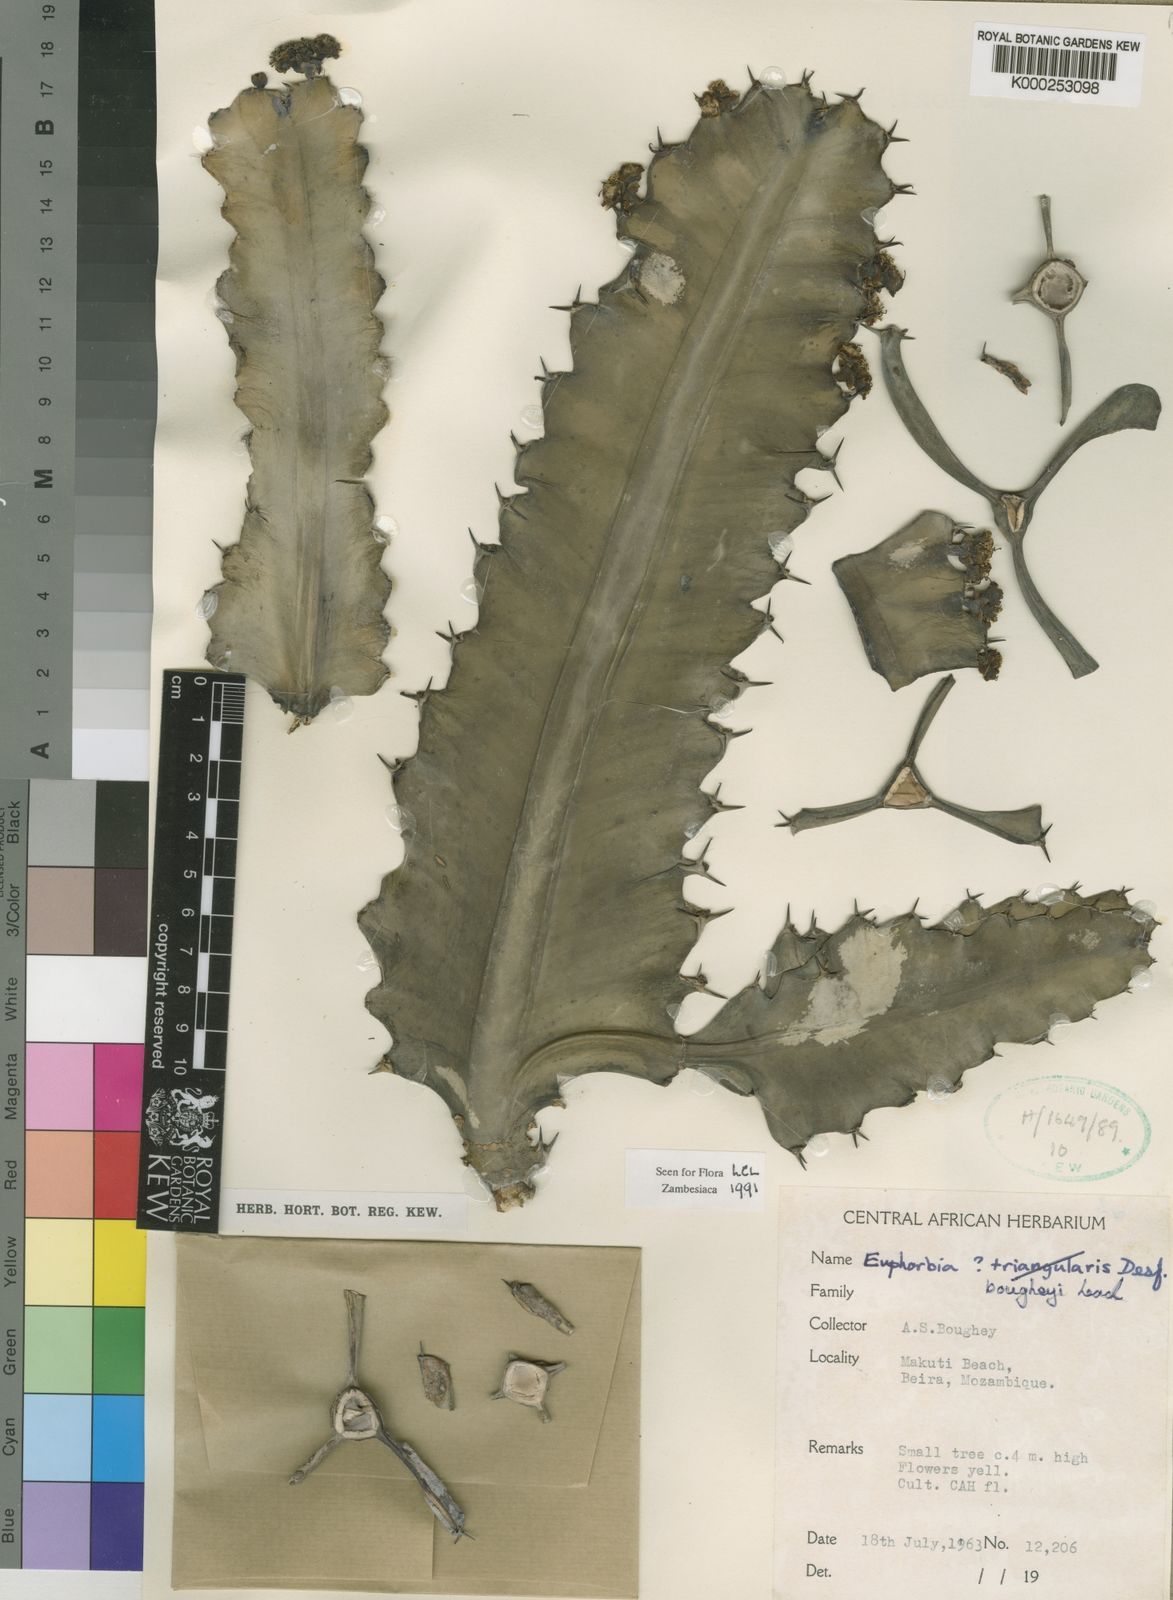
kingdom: Plantae
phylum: Tracheophyta
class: Magnoliopsida
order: Malpighiales
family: Euphorbiaceae
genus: Euphorbia
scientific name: Euphorbia bougheyi
